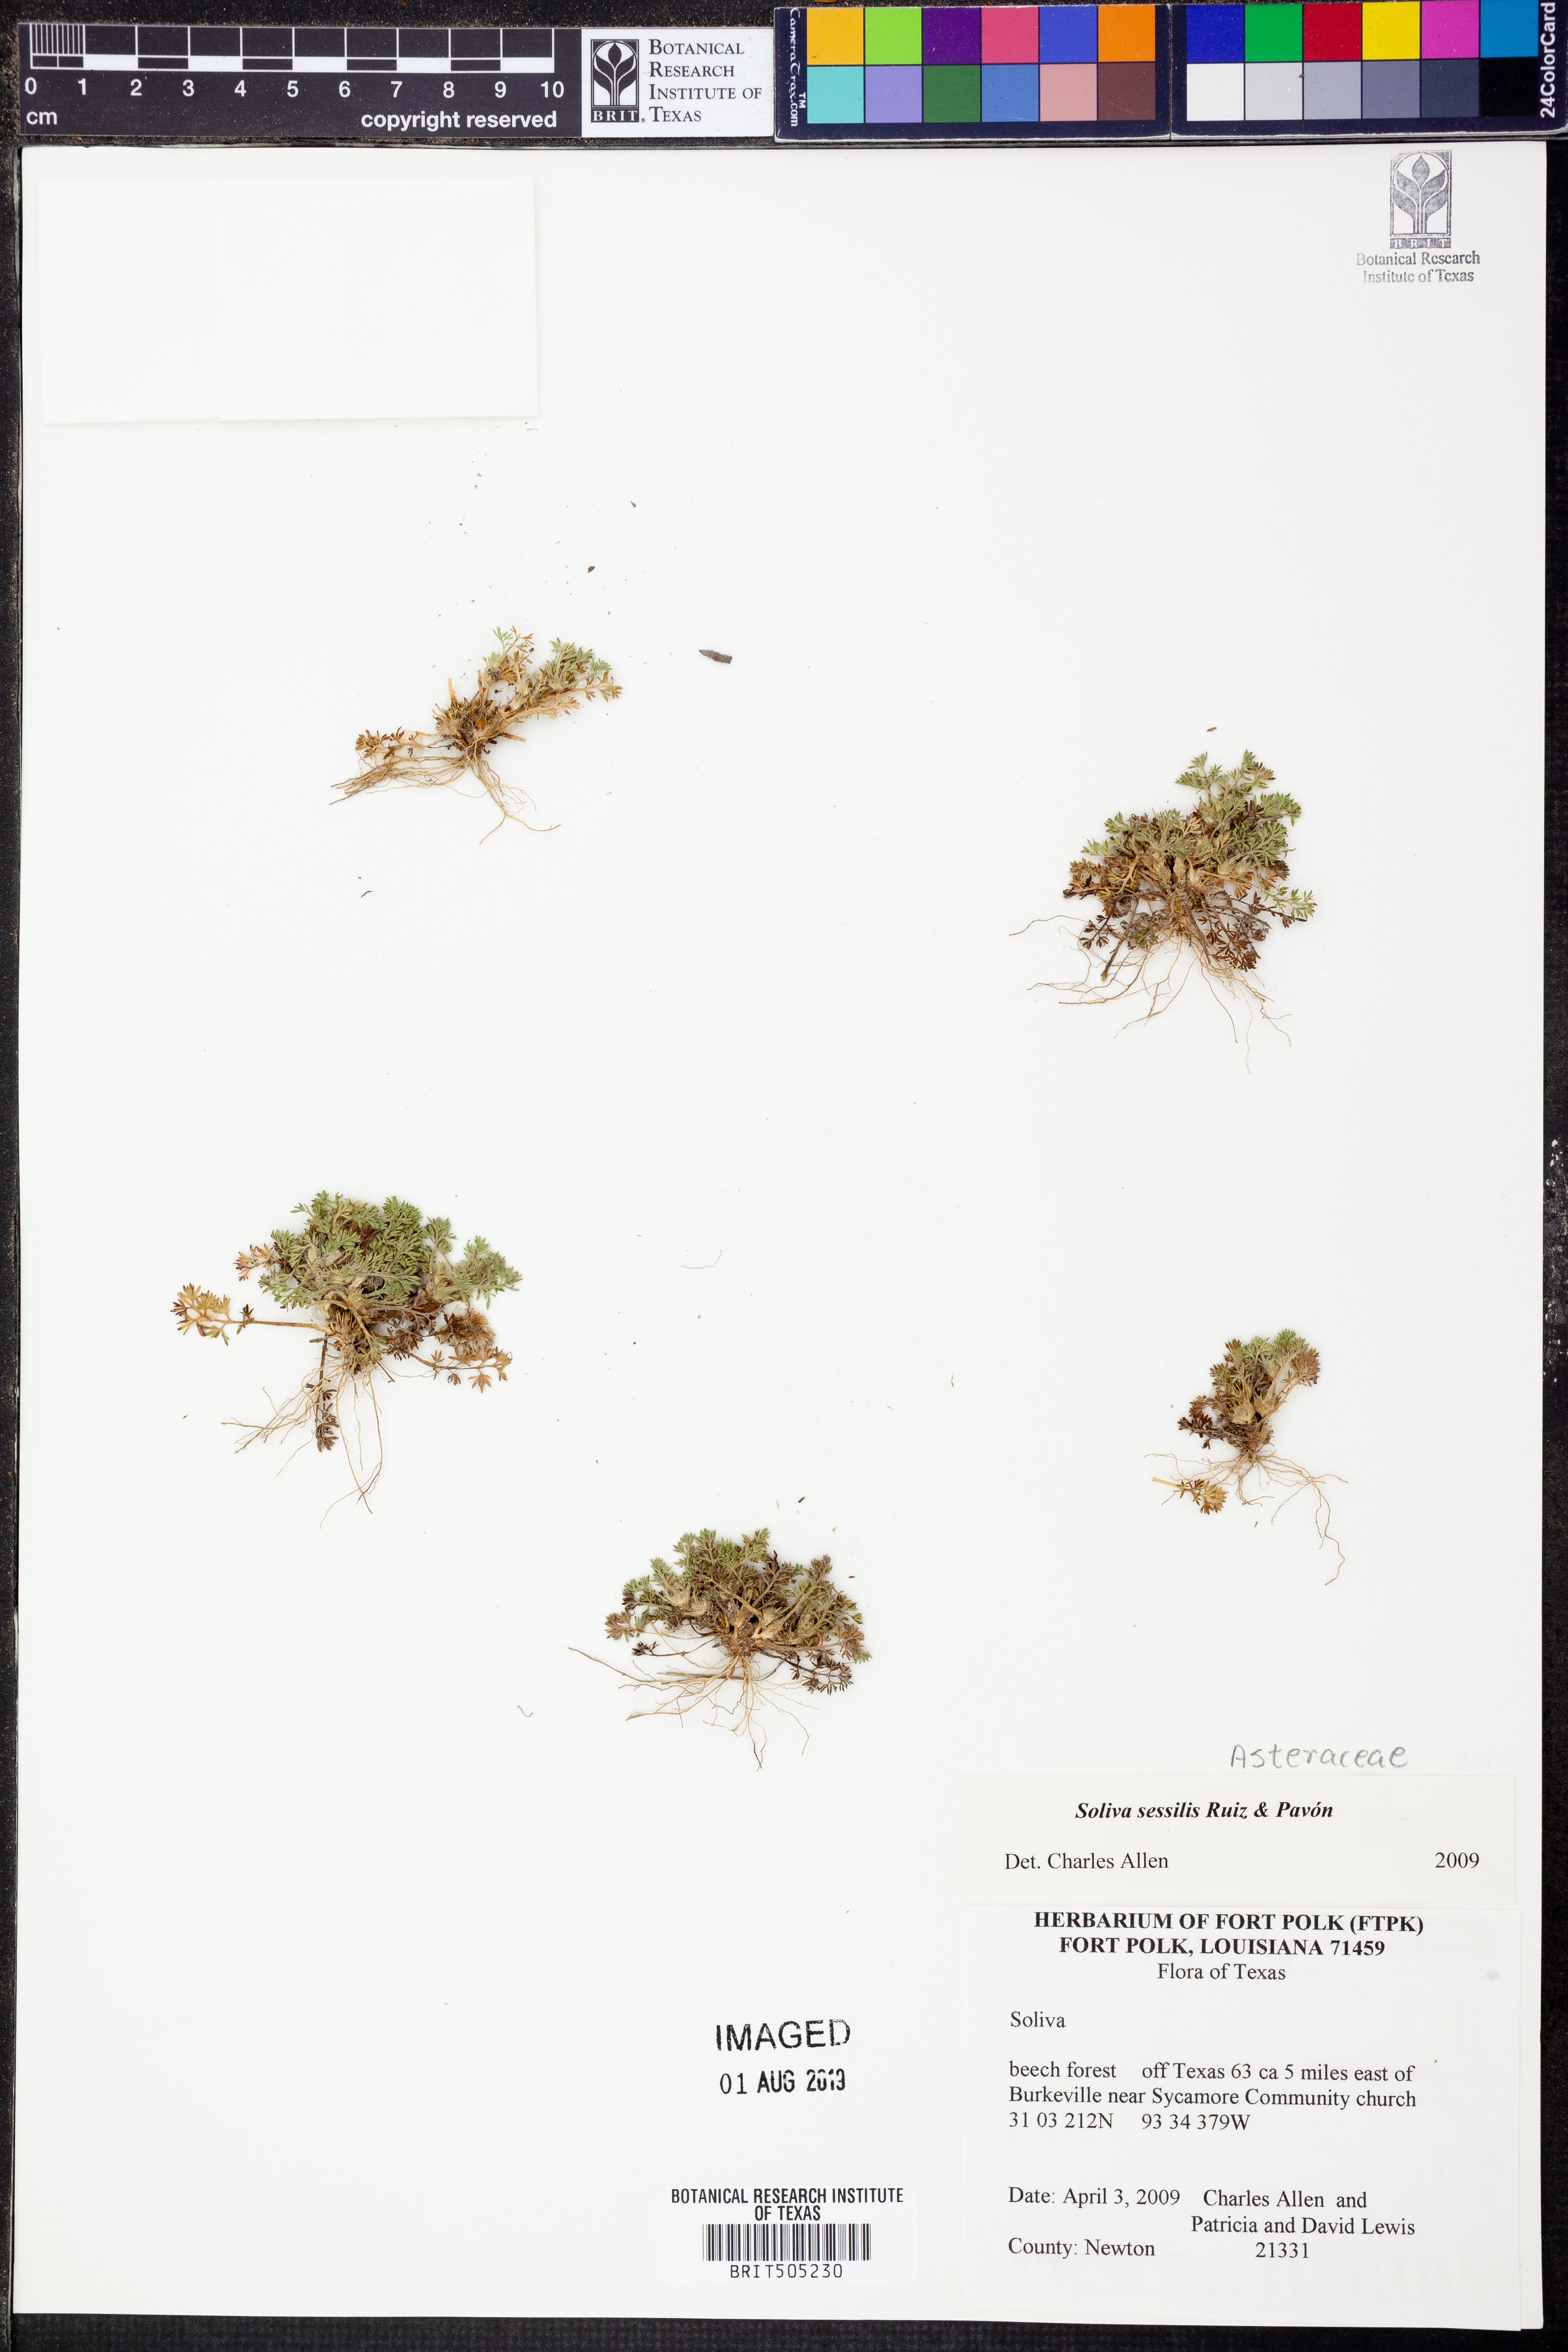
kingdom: Plantae
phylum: Tracheophyta
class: Magnoliopsida
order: Asterales
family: Asteraceae
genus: Soliva
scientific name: Soliva sessilis
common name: Field burrweed
